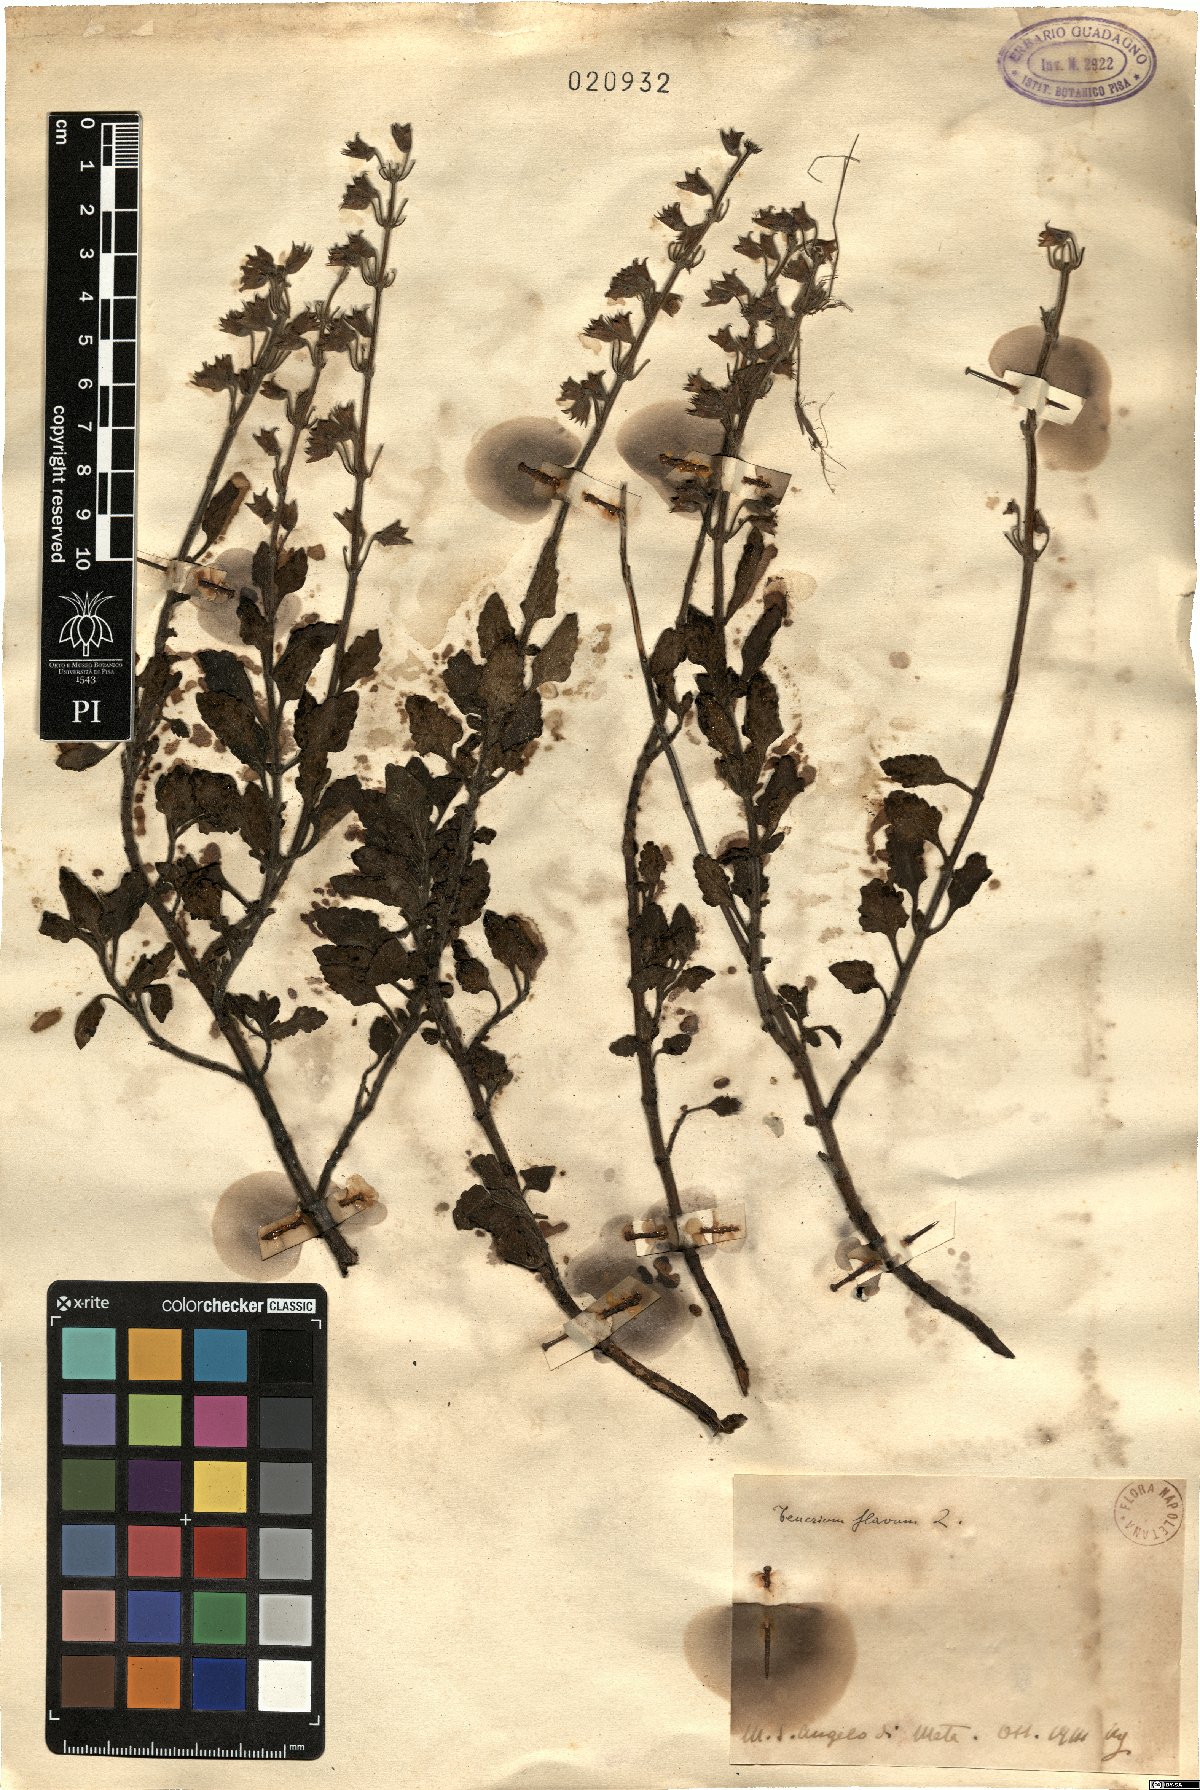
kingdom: Plantae
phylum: Tracheophyta
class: Magnoliopsida
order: Lamiales
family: Lamiaceae
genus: Teucrium
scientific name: Teucrium flavum
